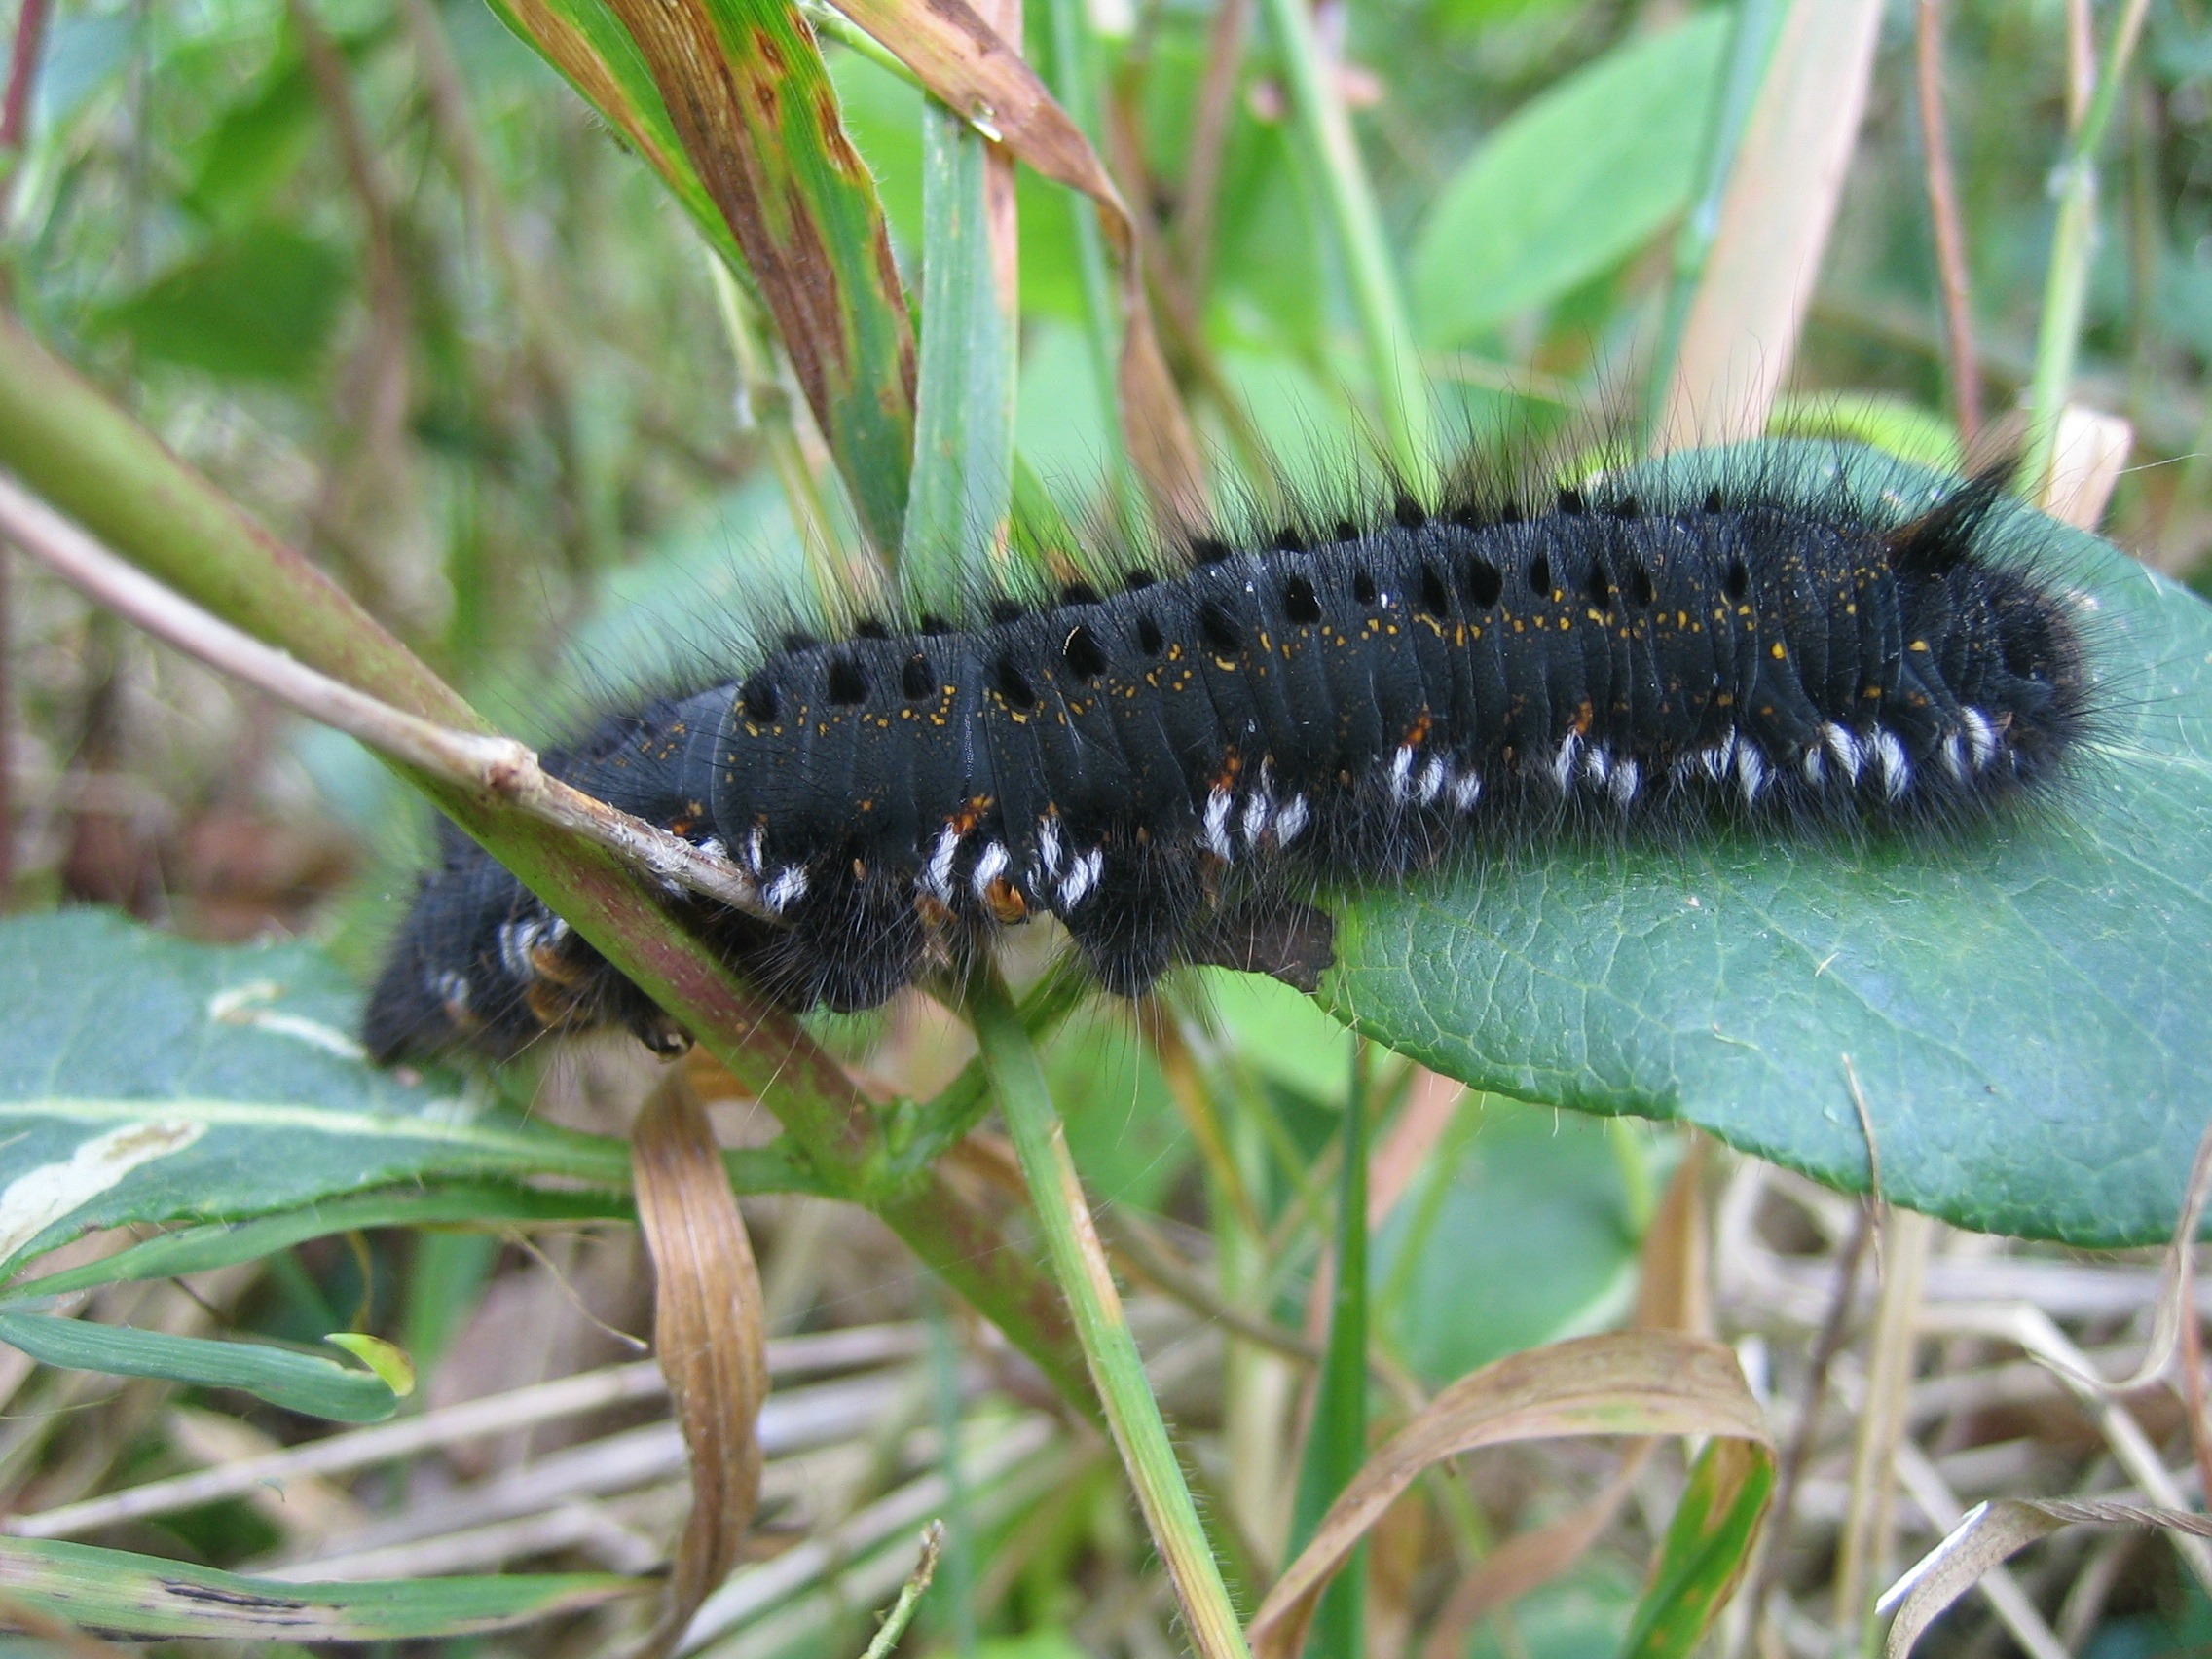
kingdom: Animalia
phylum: Arthropoda
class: Insecta
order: Lepidoptera
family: Lasiocampidae
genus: Euthrix
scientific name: Euthrix potatoria
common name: Græsspinder
